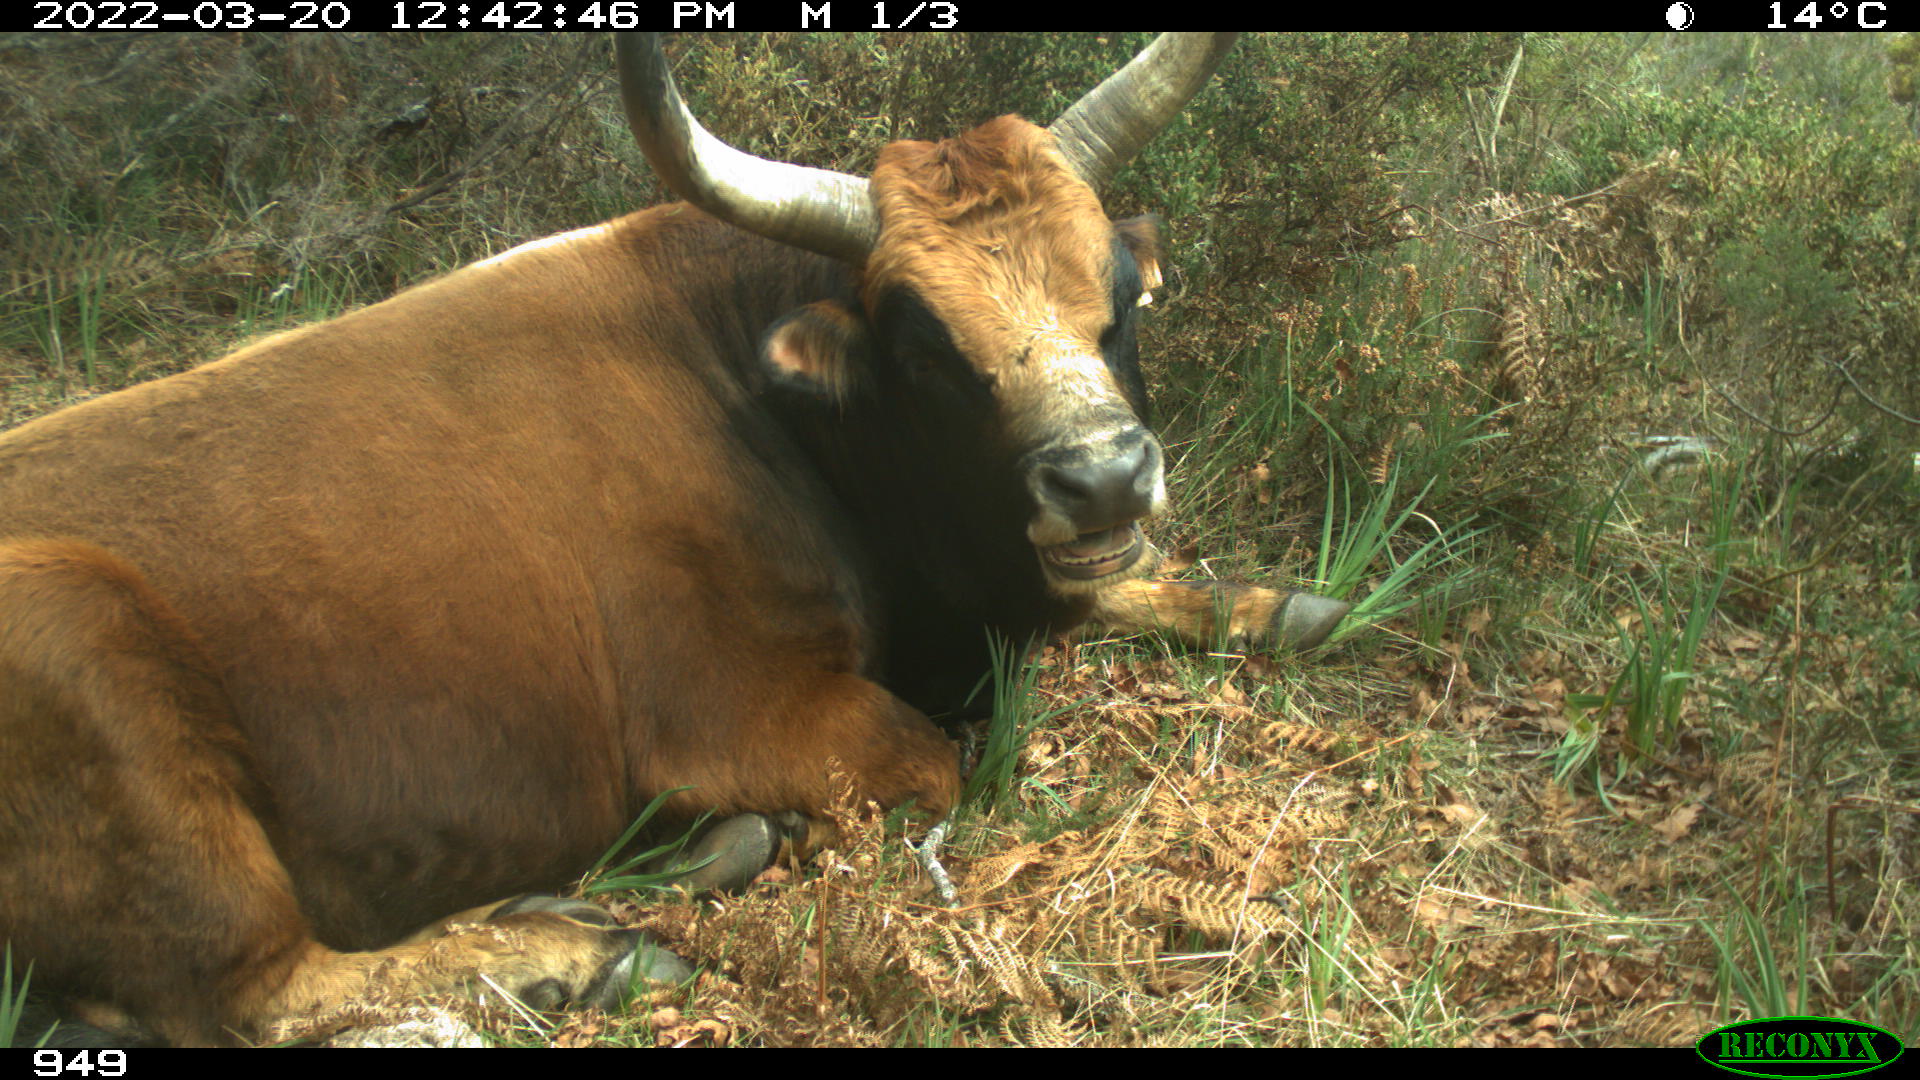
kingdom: Animalia
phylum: Chordata
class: Mammalia
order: Artiodactyla
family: Bovidae
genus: Bos
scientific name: Bos taurus
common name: Domesticated cattle
